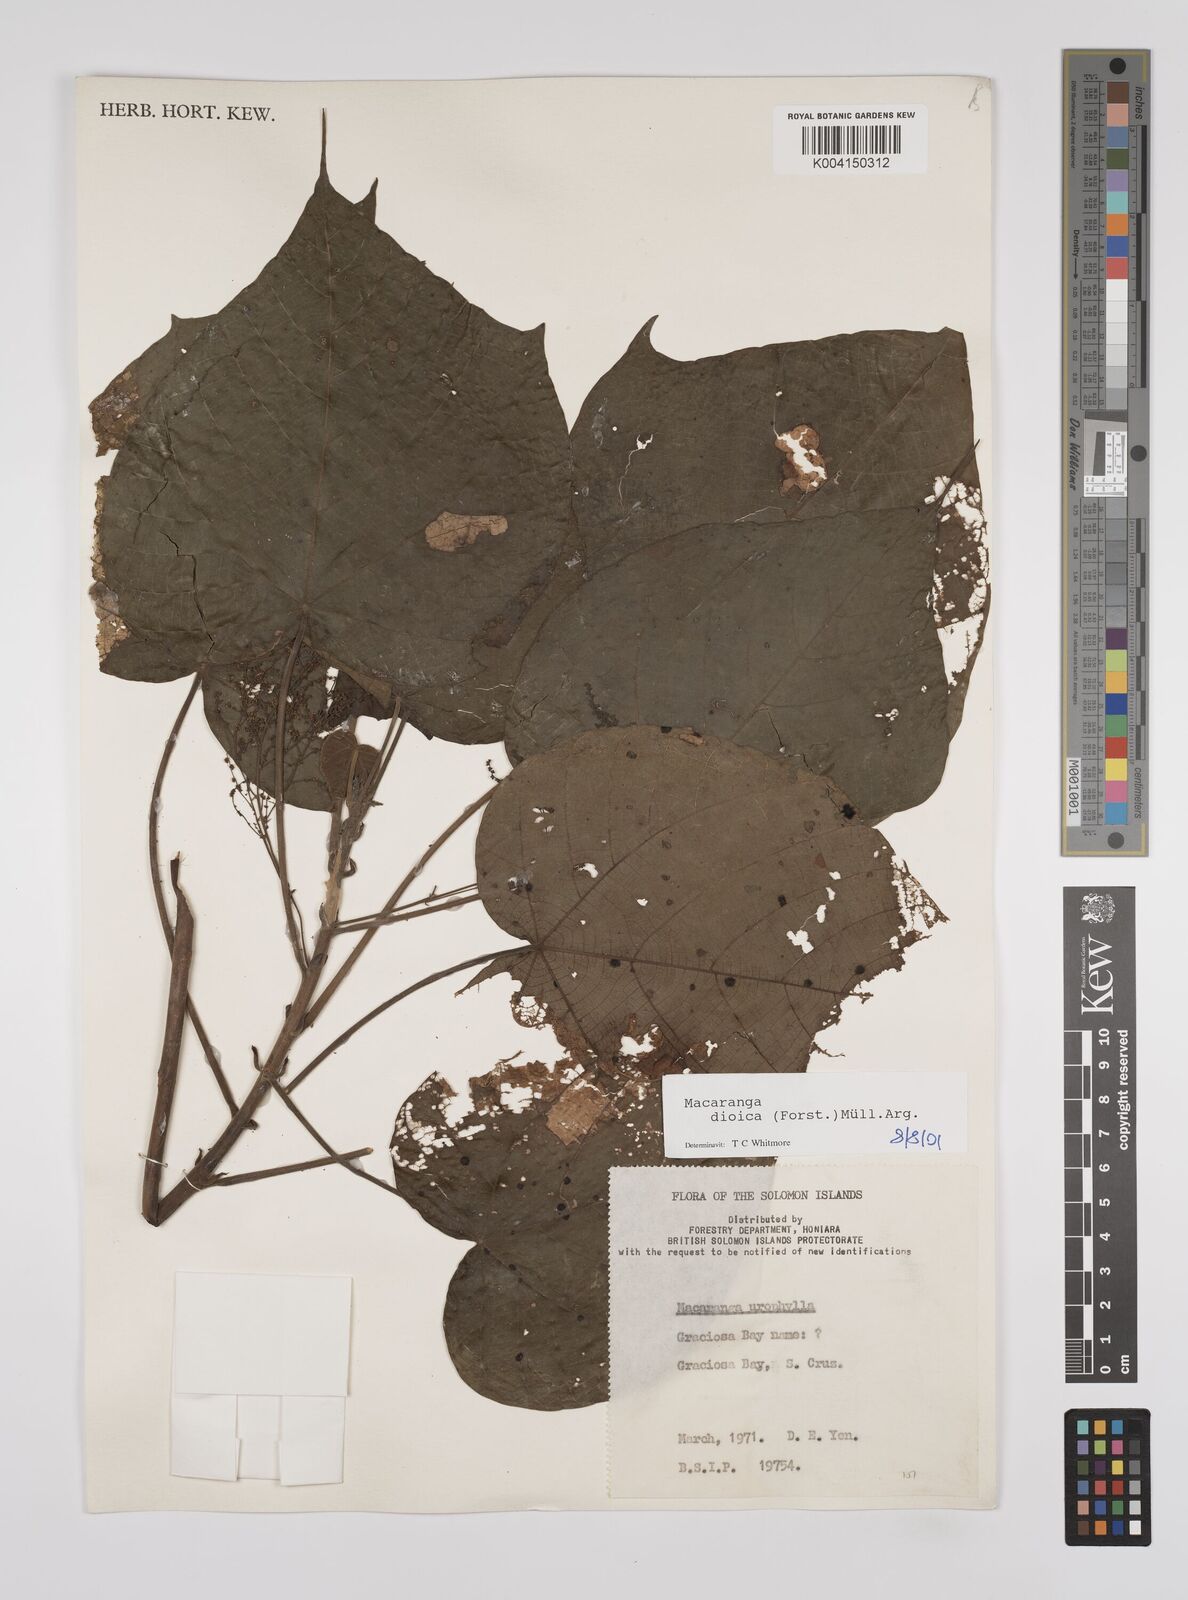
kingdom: Plantae
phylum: Tracheophyta
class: Magnoliopsida
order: Malpighiales
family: Euphorbiaceae
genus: Macaranga
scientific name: Macaranga dioica
